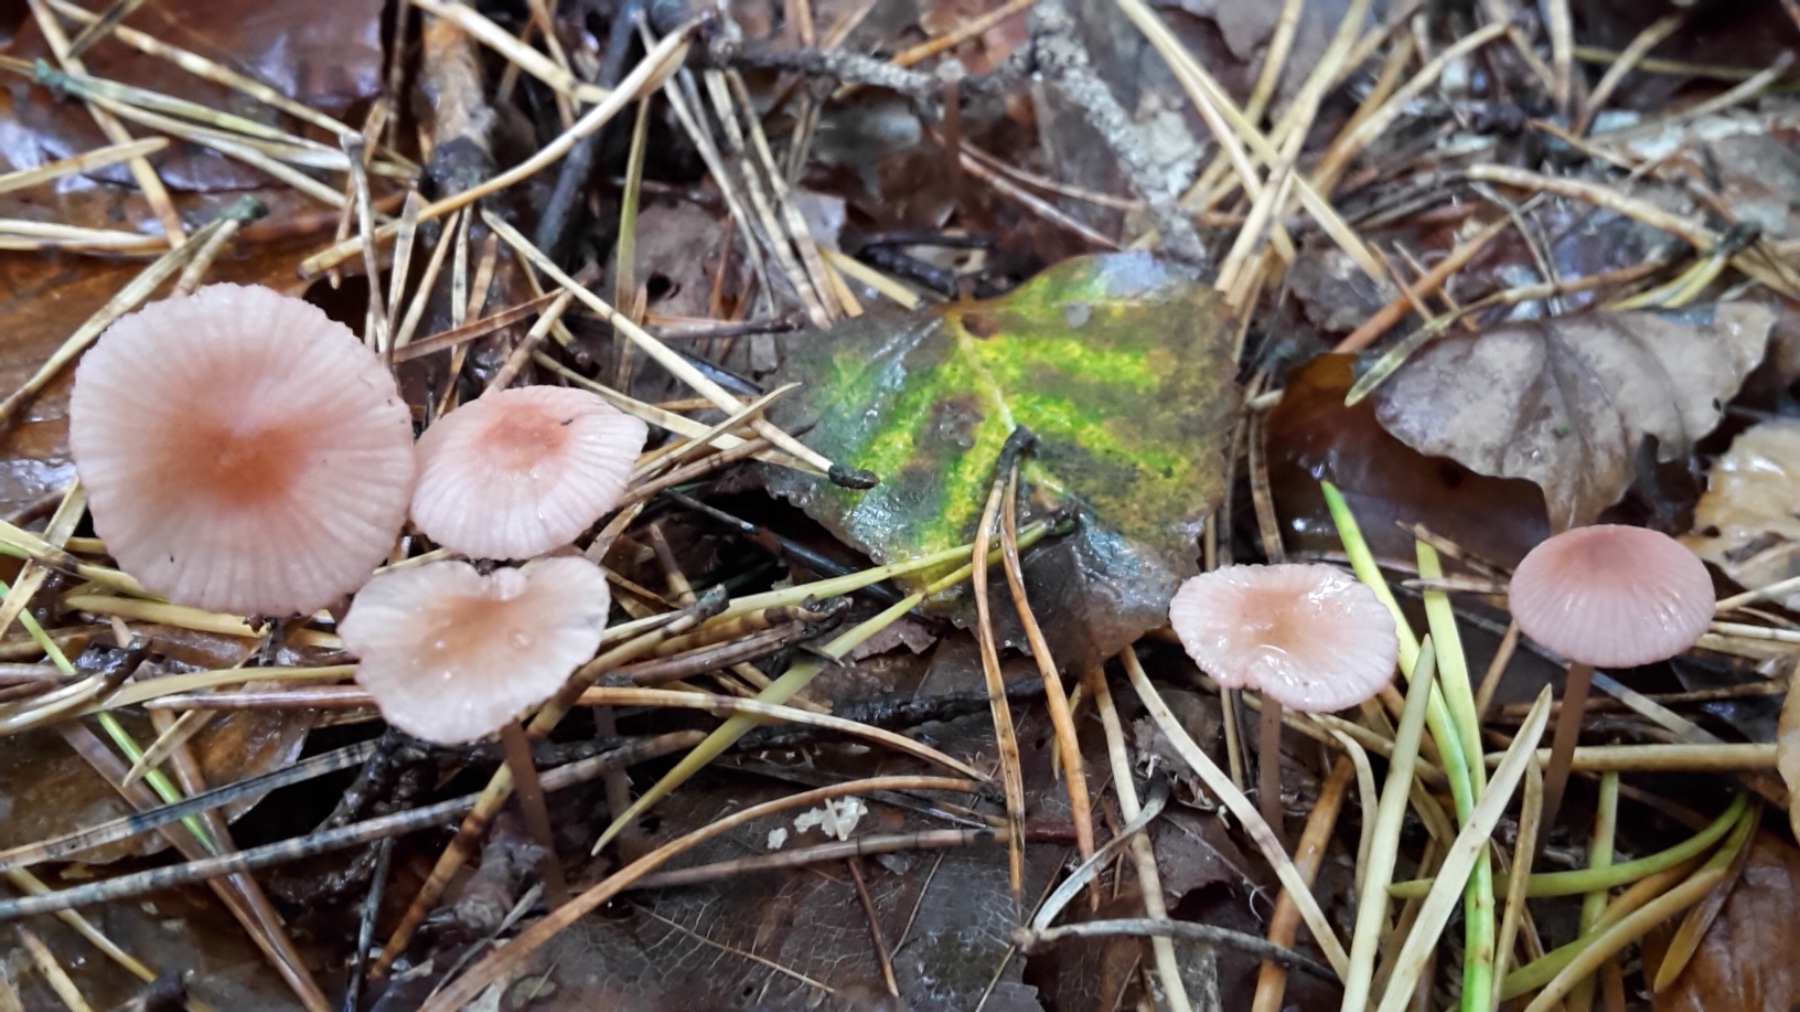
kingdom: Fungi
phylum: Basidiomycota
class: Agaricomycetes
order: Agaricales
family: Mycenaceae
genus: Mycena
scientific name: Mycena rosella
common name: rosenrød huesvamp
